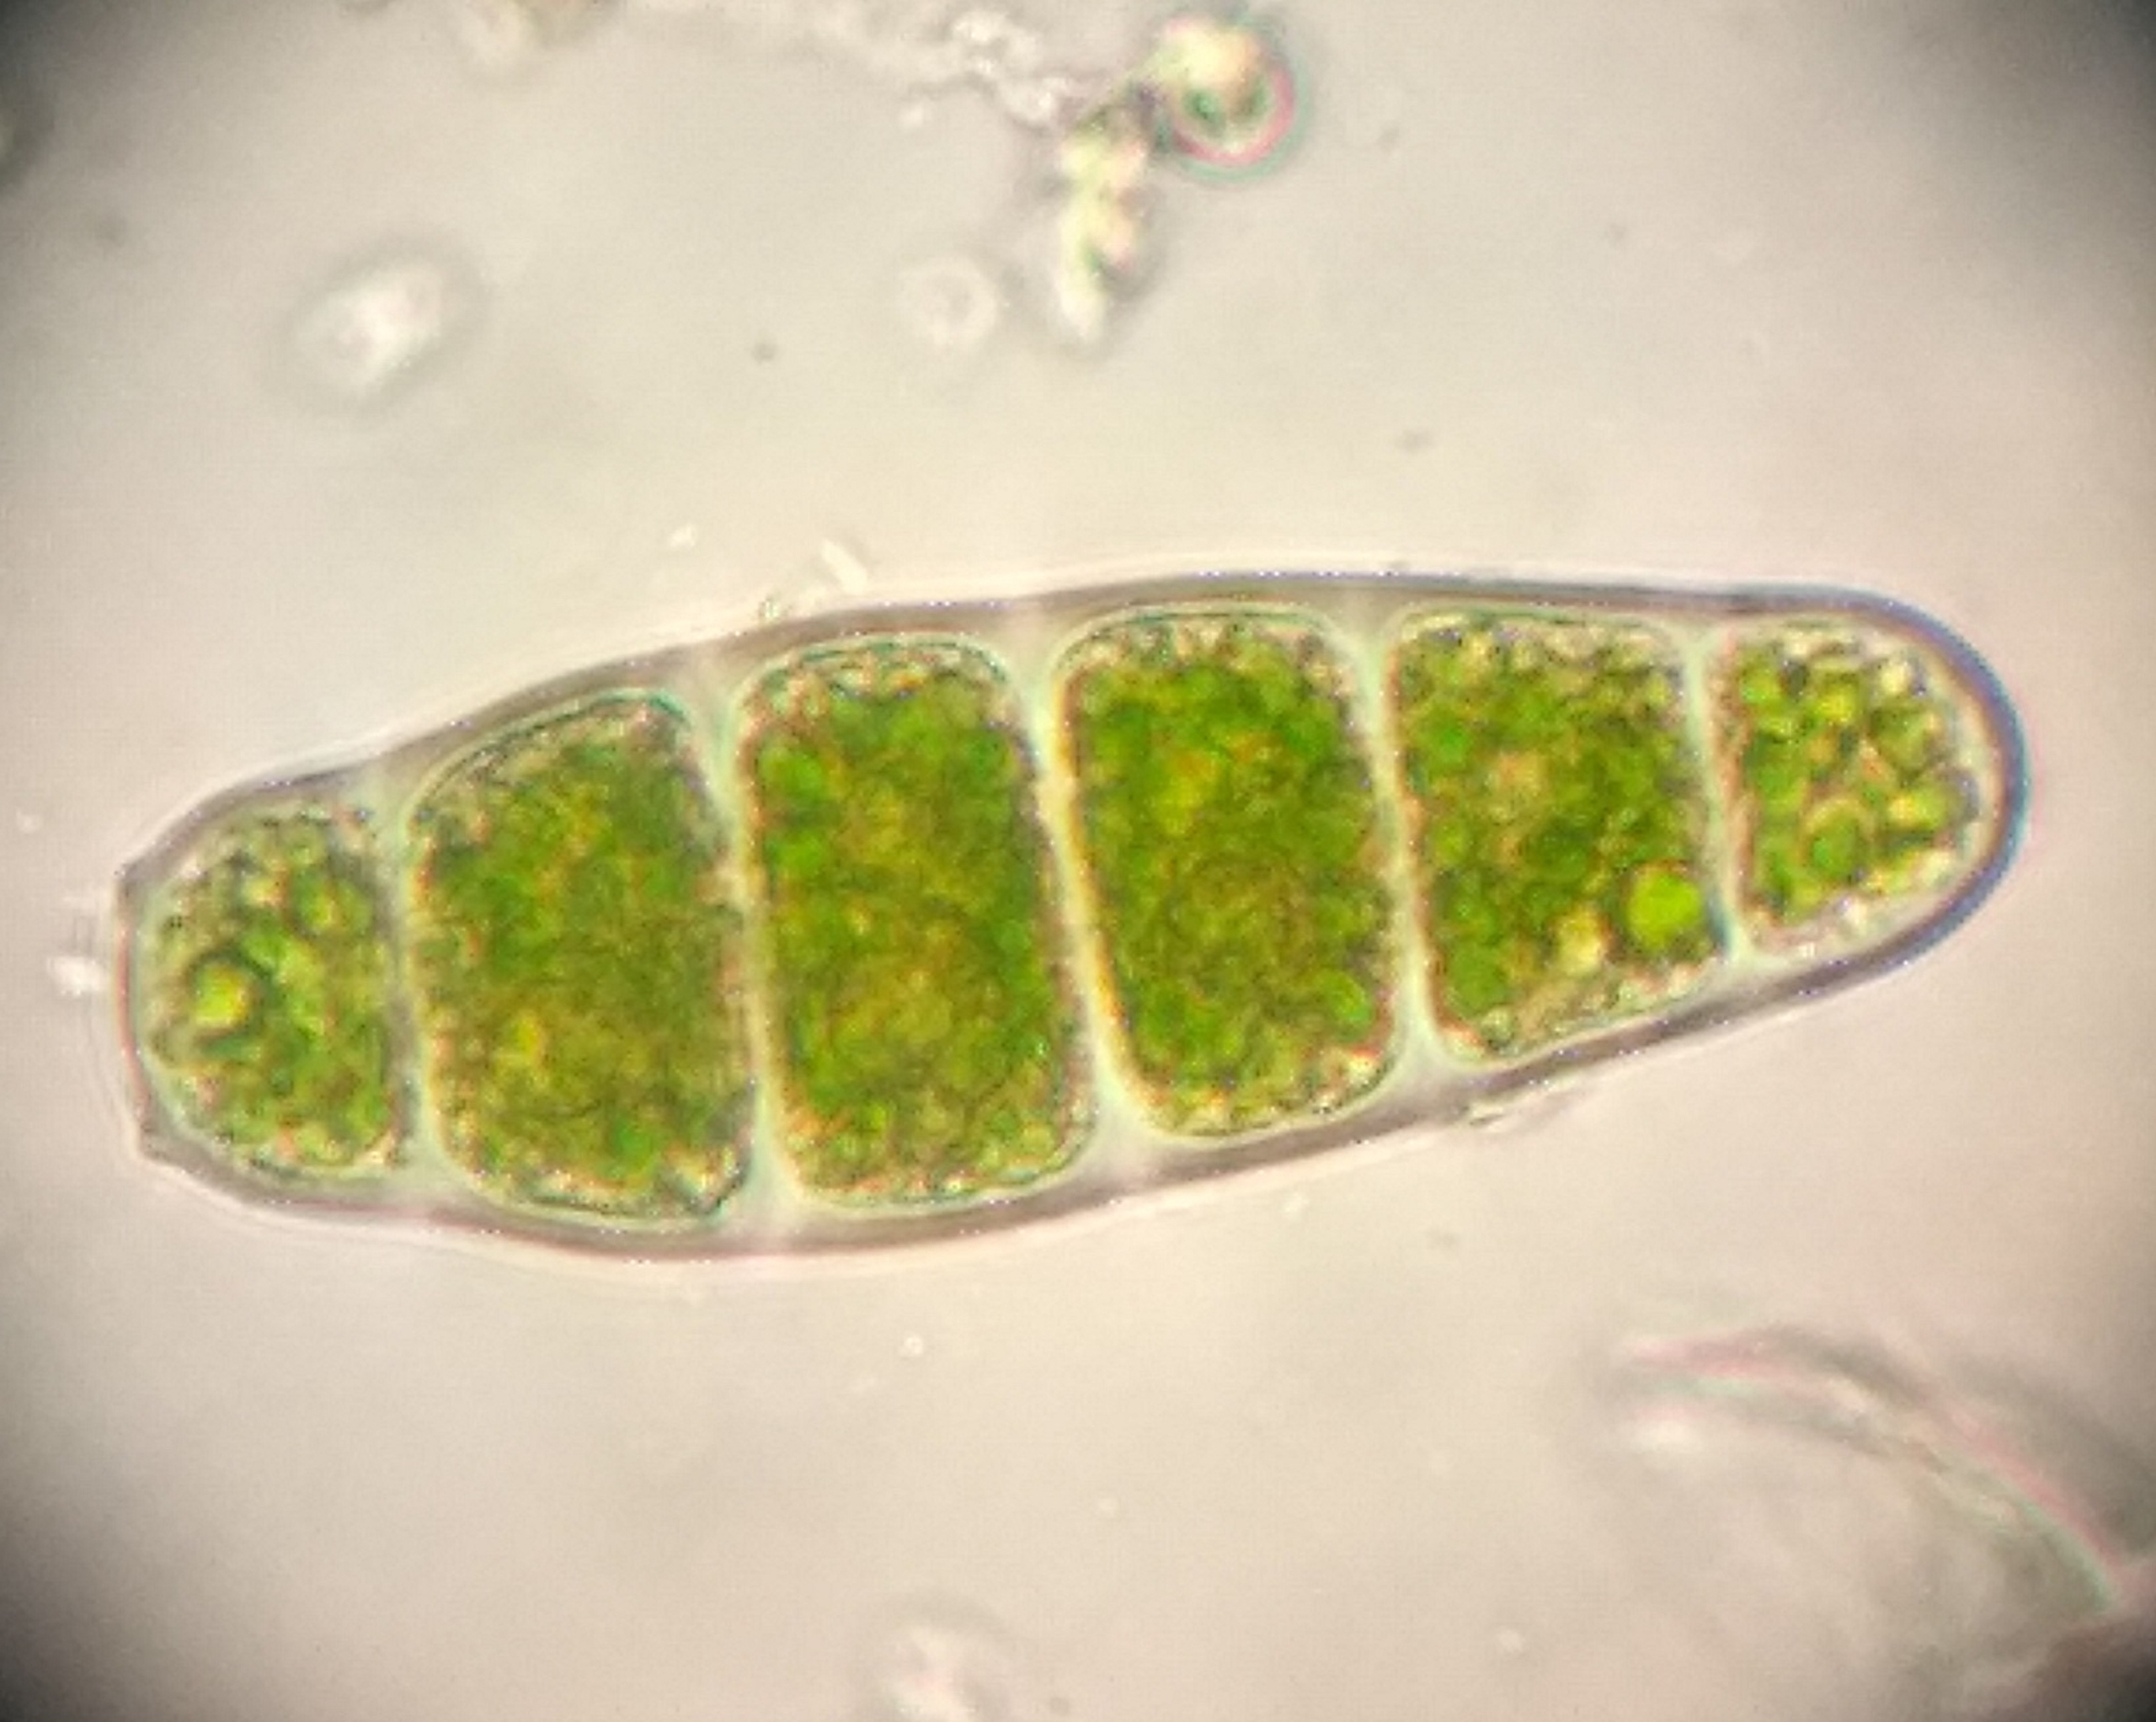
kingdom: Plantae
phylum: Bryophyta
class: Bryopsida
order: Orthotrichales
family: Orthotrichaceae
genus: Zygodon
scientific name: Zygodon conoideus
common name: Tand-køllemos
